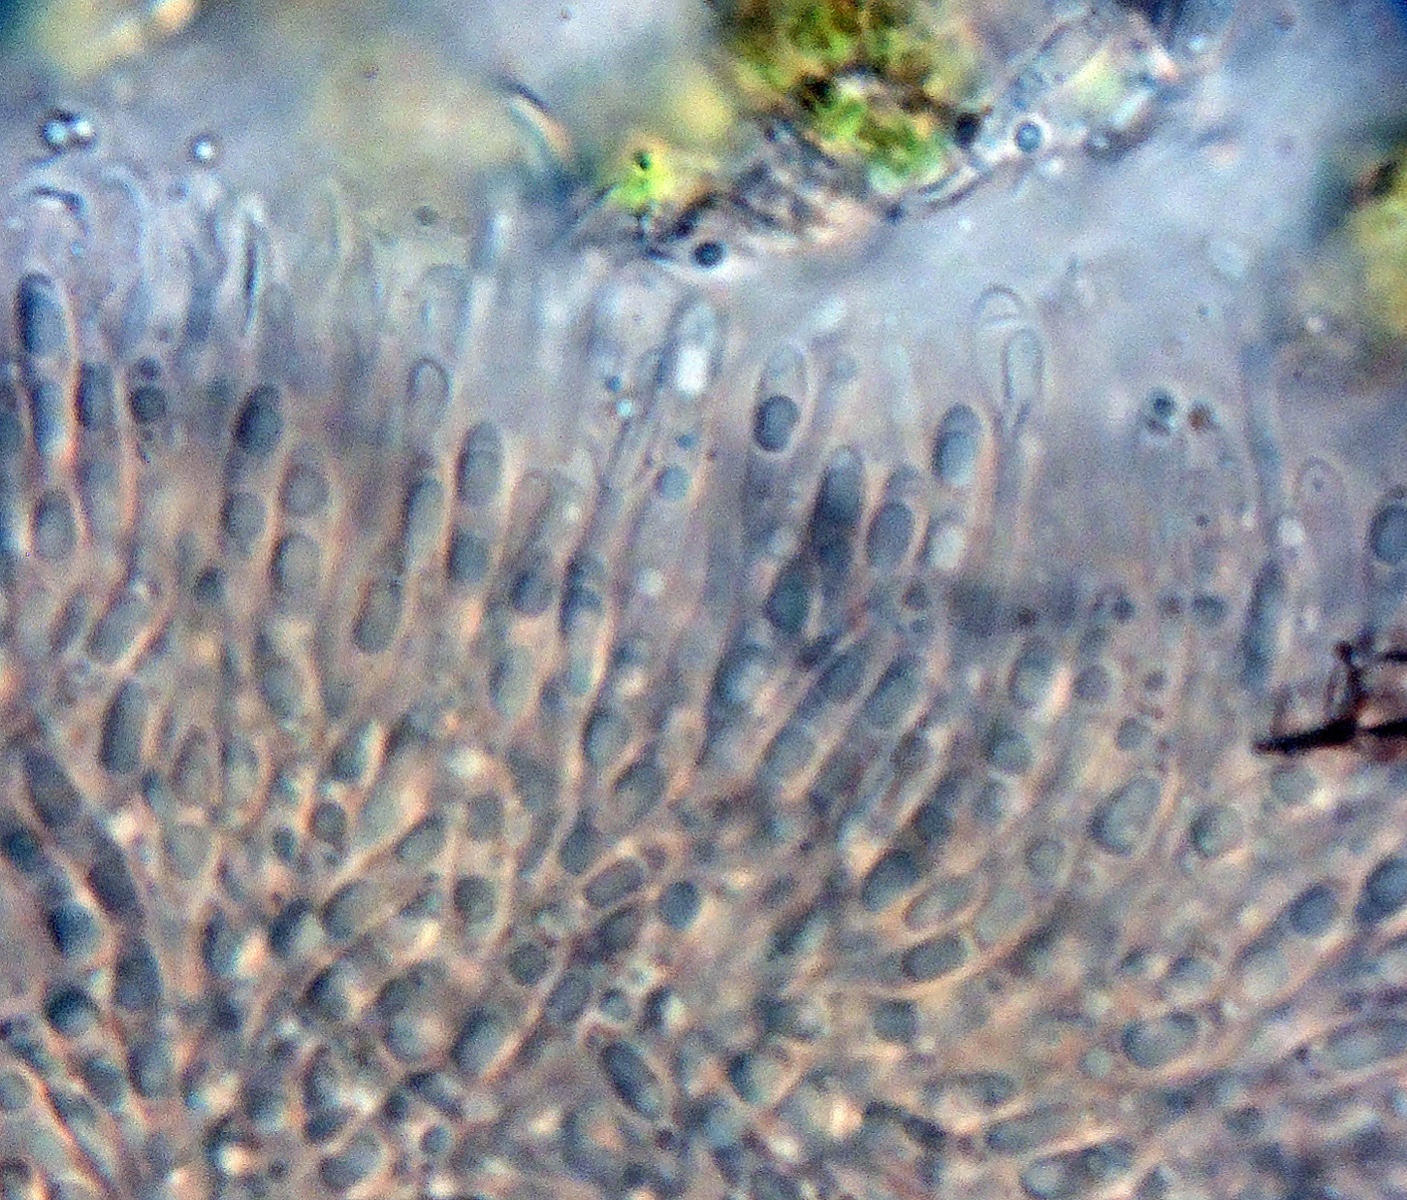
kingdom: Fungi
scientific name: Fungi
